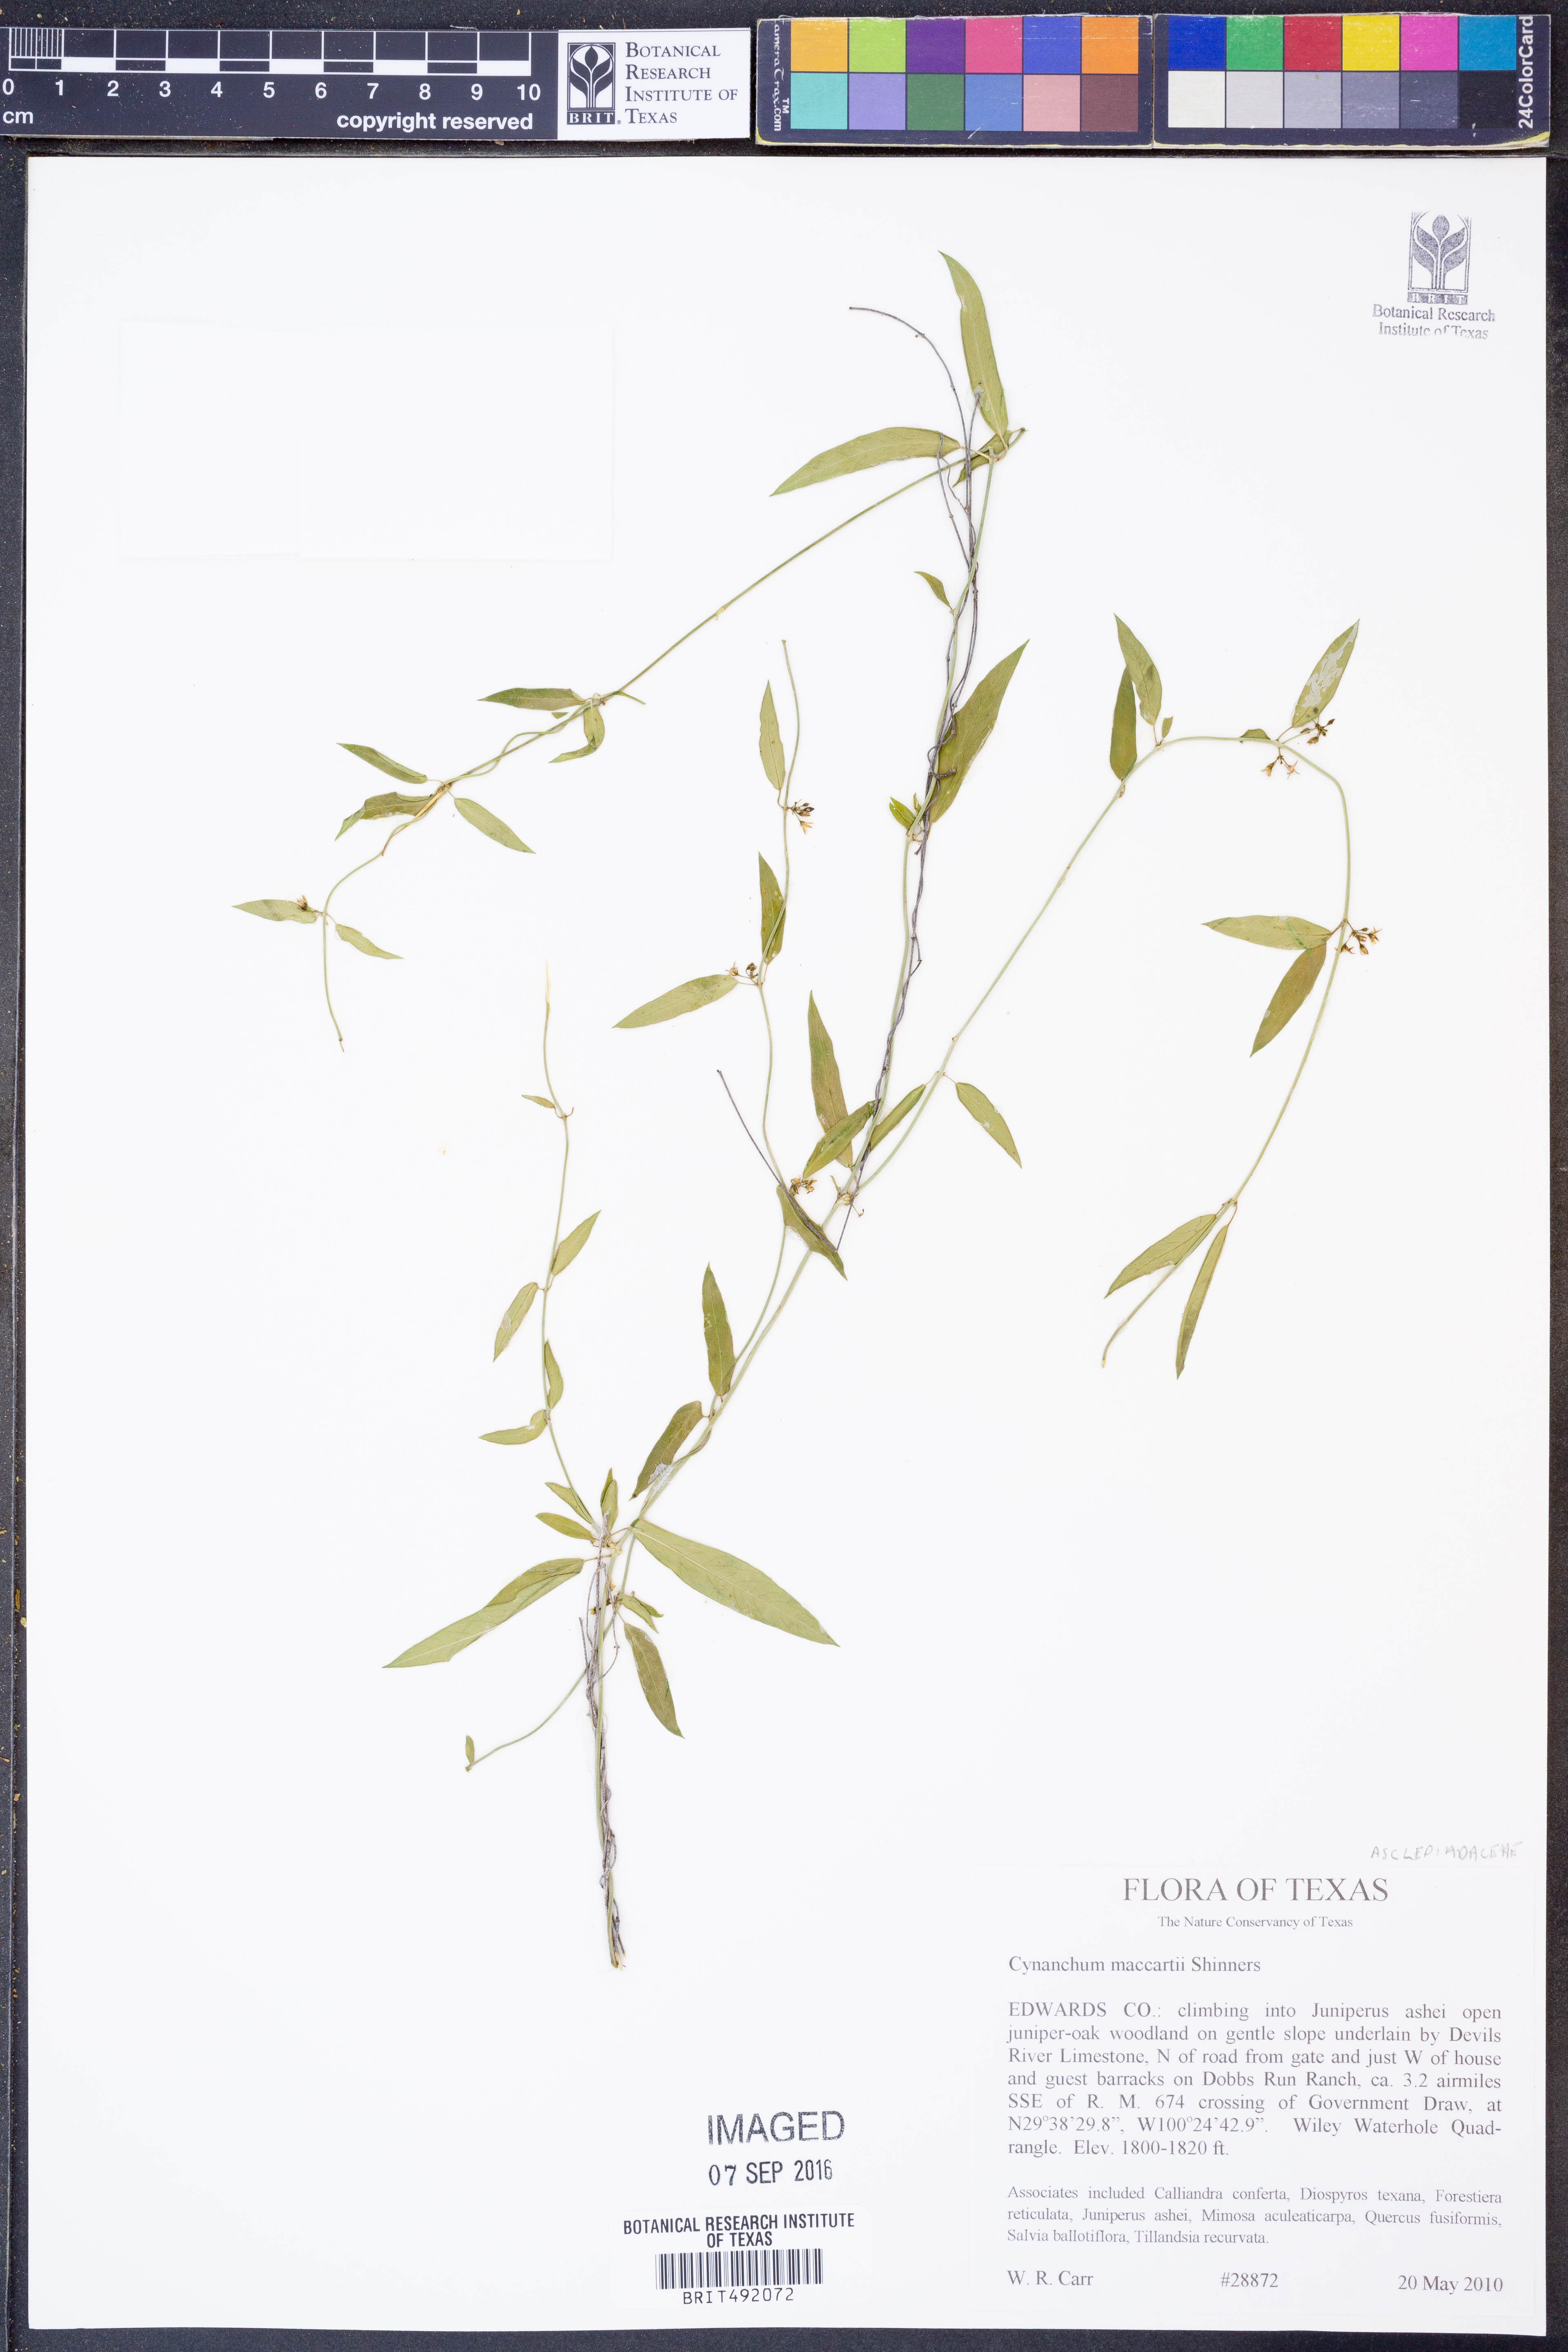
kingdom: Plantae
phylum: Tracheophyta
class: Magnoliopsida
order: Gentianales
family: Apocynaceae
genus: Metastelma
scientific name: Metastelma palmeri
